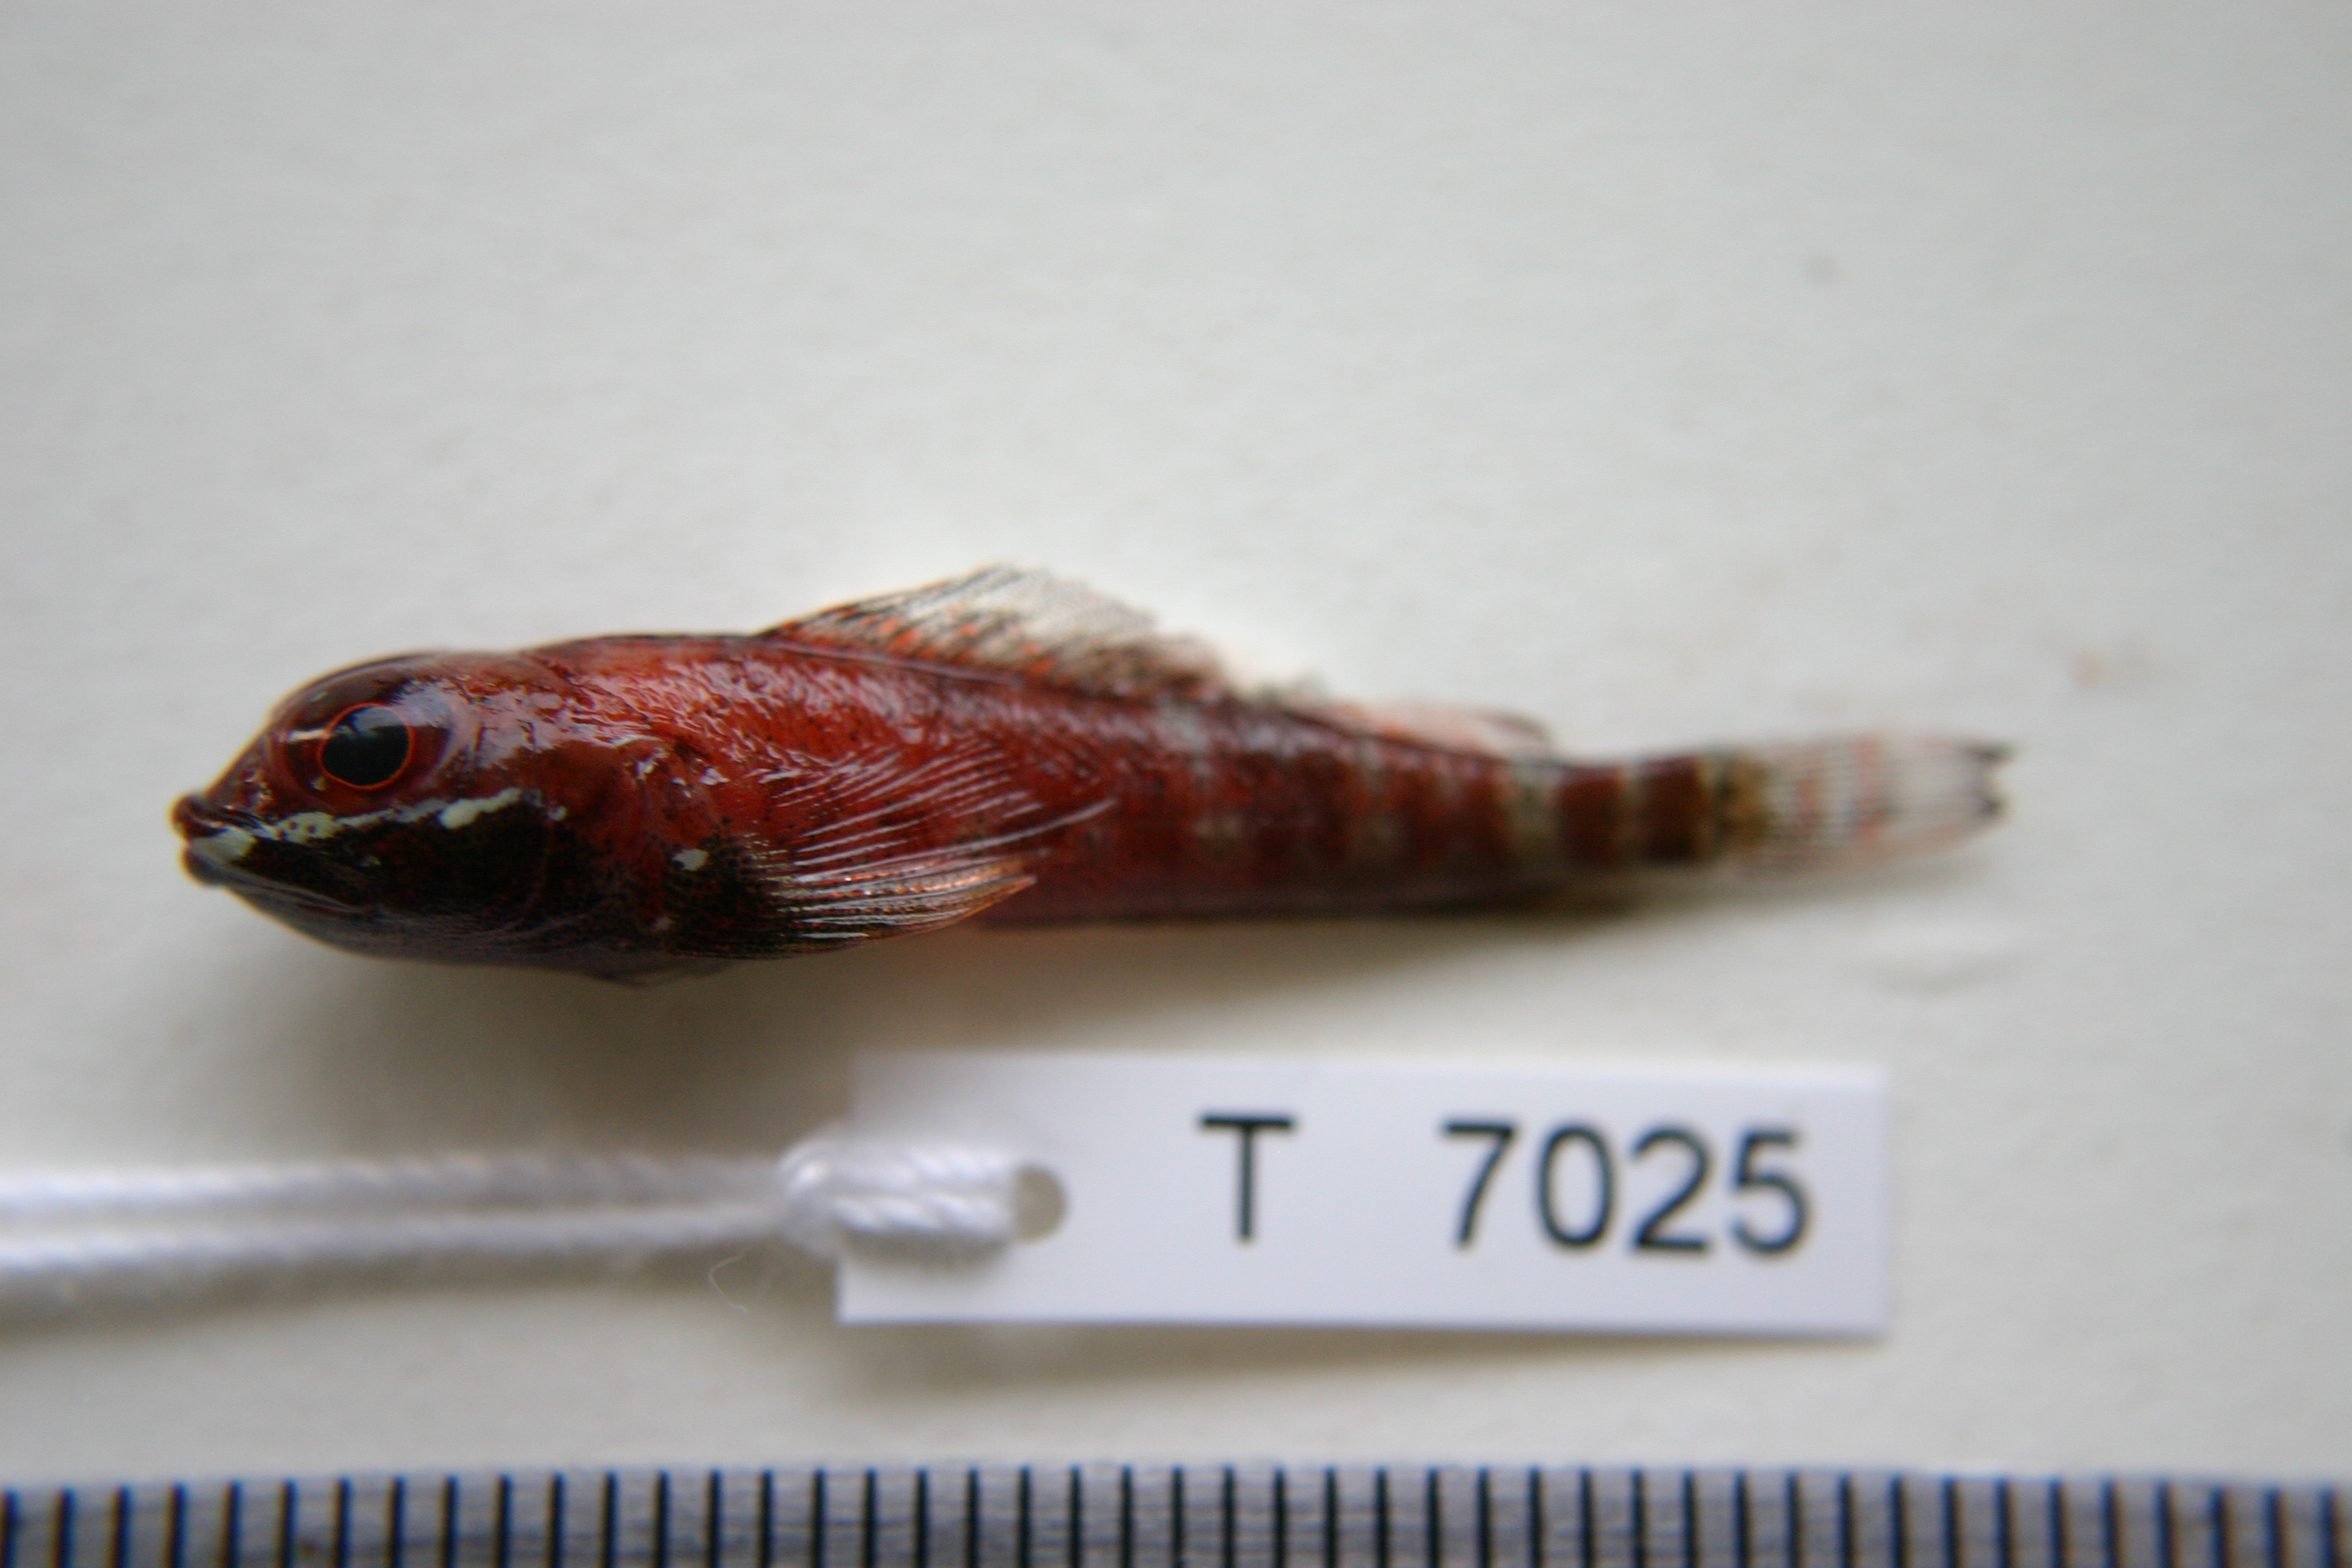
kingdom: Animalia
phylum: Chordata
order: Perciformes
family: Tripterygiidae
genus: Helcogramma
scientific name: Helcogramma fuscopinna
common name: Blackfin triplefin
